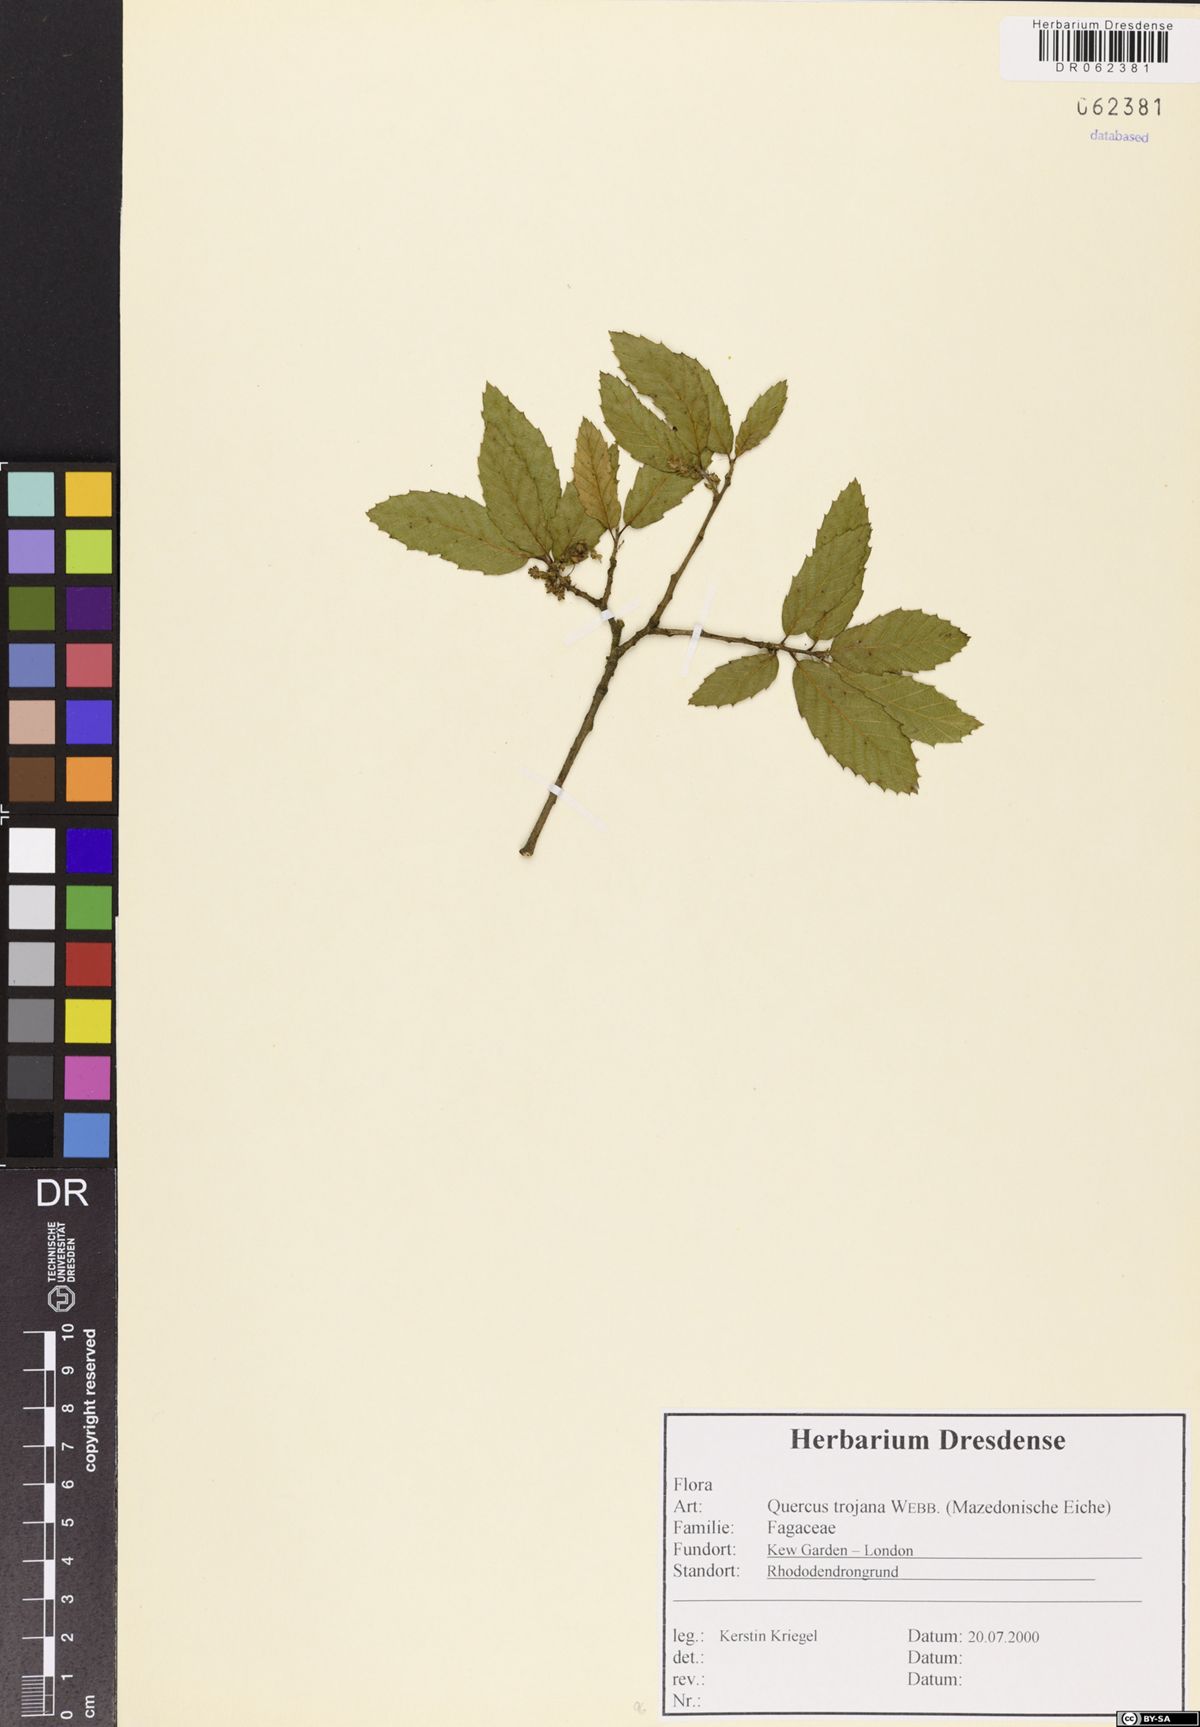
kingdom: Plantae
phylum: Tracheophyta
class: Magnoliopsida
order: Fagales
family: Fagaceae
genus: Quercus
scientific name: Quercus trojana
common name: Macedonian oak
